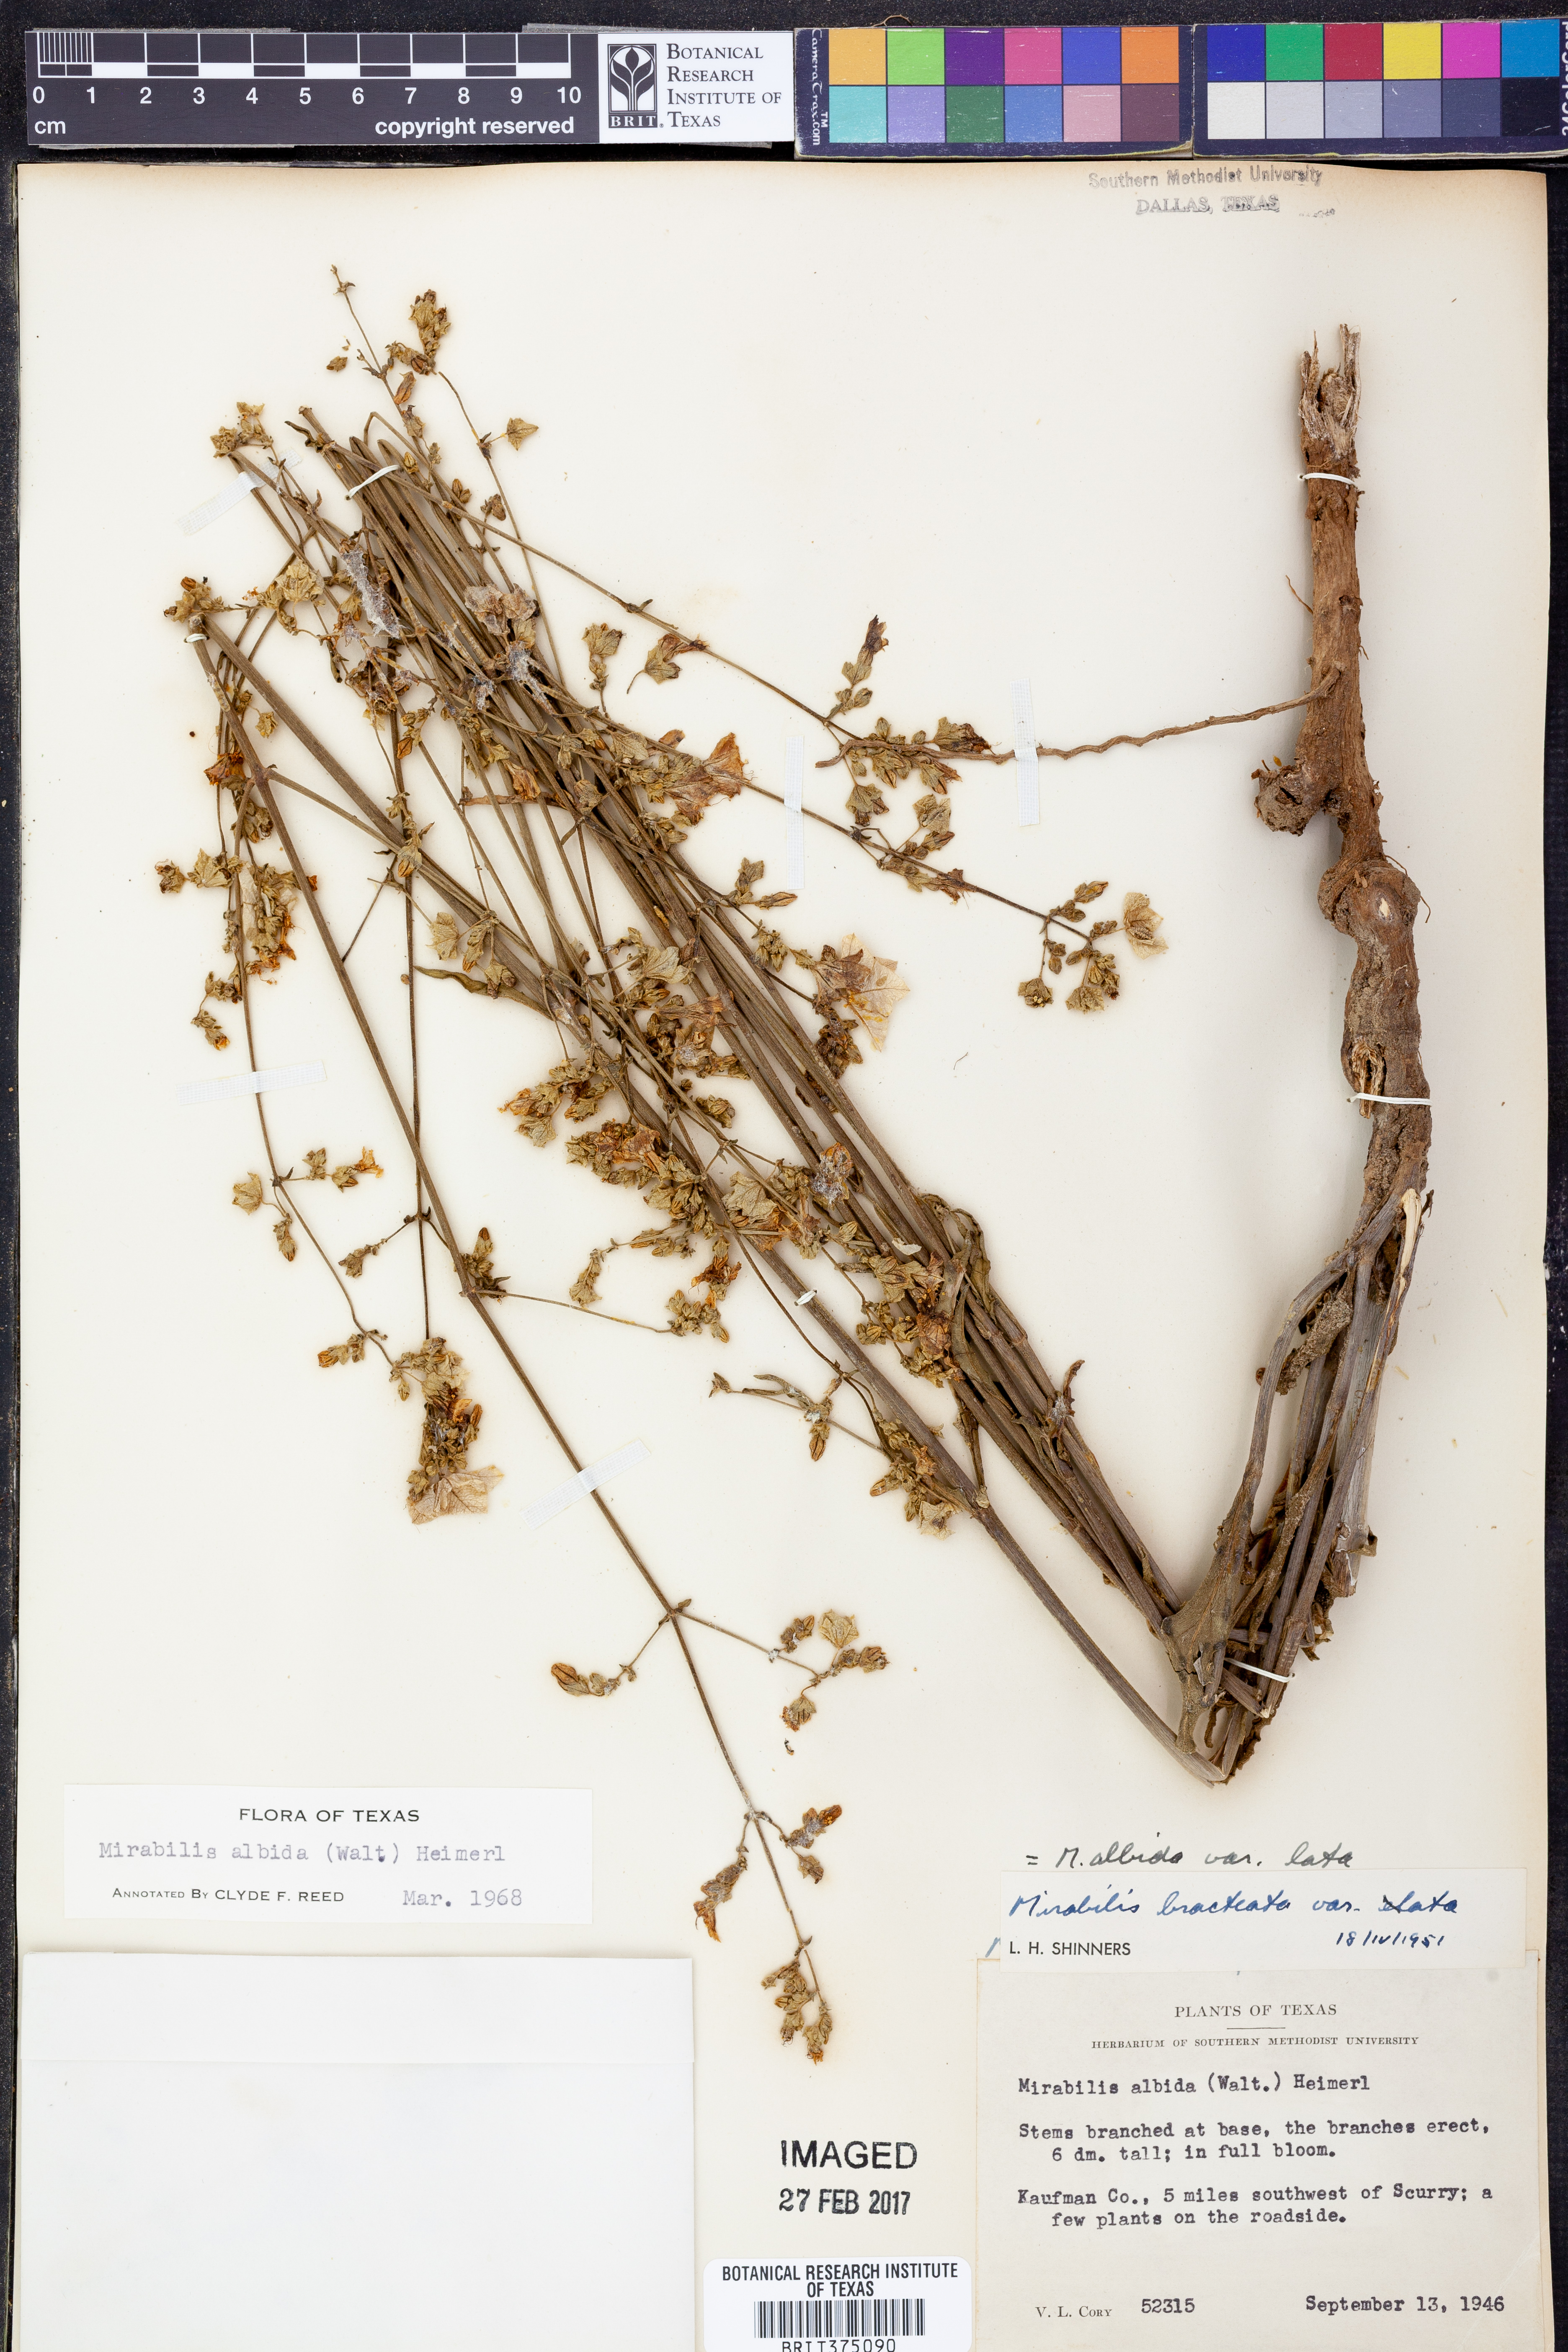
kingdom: Plantae
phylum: Tracheophyta
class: Magnoliopsida
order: Caryophyllales
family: Nyctaginaceae
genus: Mirabilis
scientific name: Mirabilis albida
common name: Hairy four-o'clock
